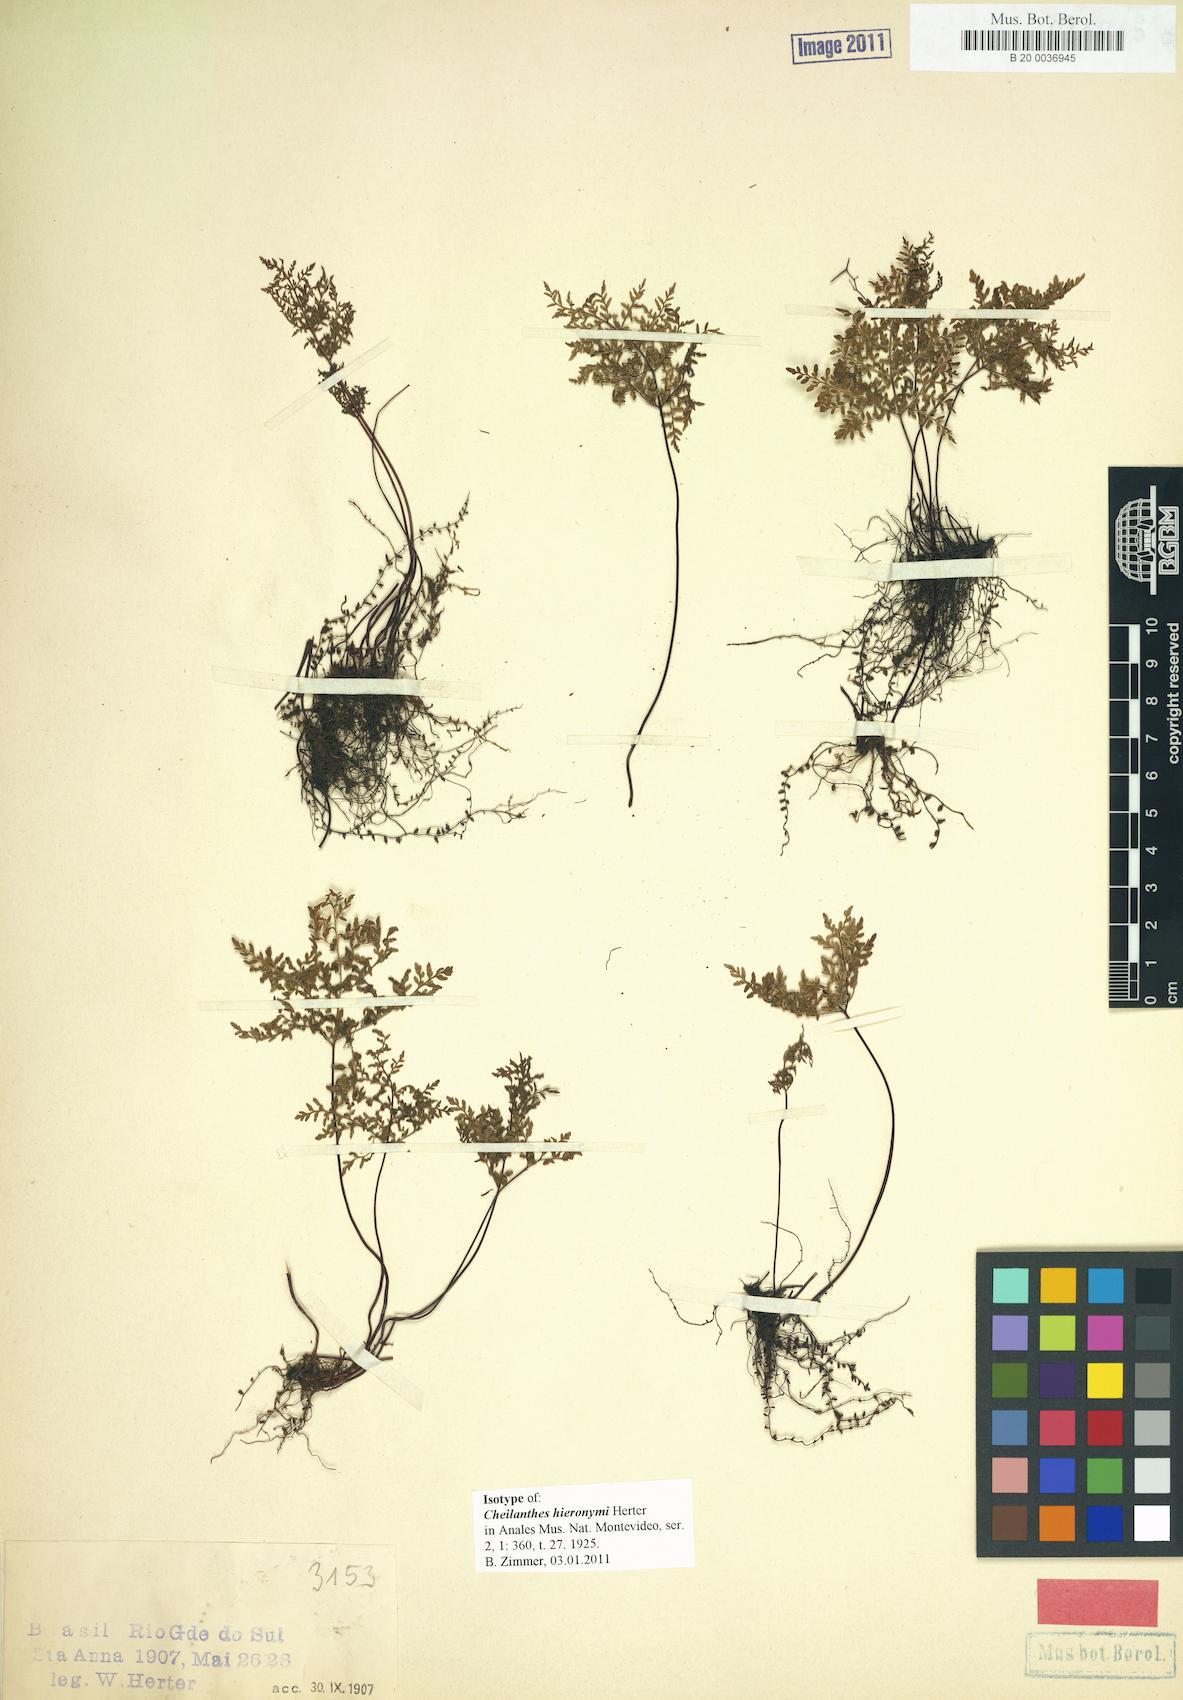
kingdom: Plantae
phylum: Tracheophyta
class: Polypodiopsida
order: Polypodiales
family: Pteridaceae
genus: Cheilanthes
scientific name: Cheilanthes hieronymi
